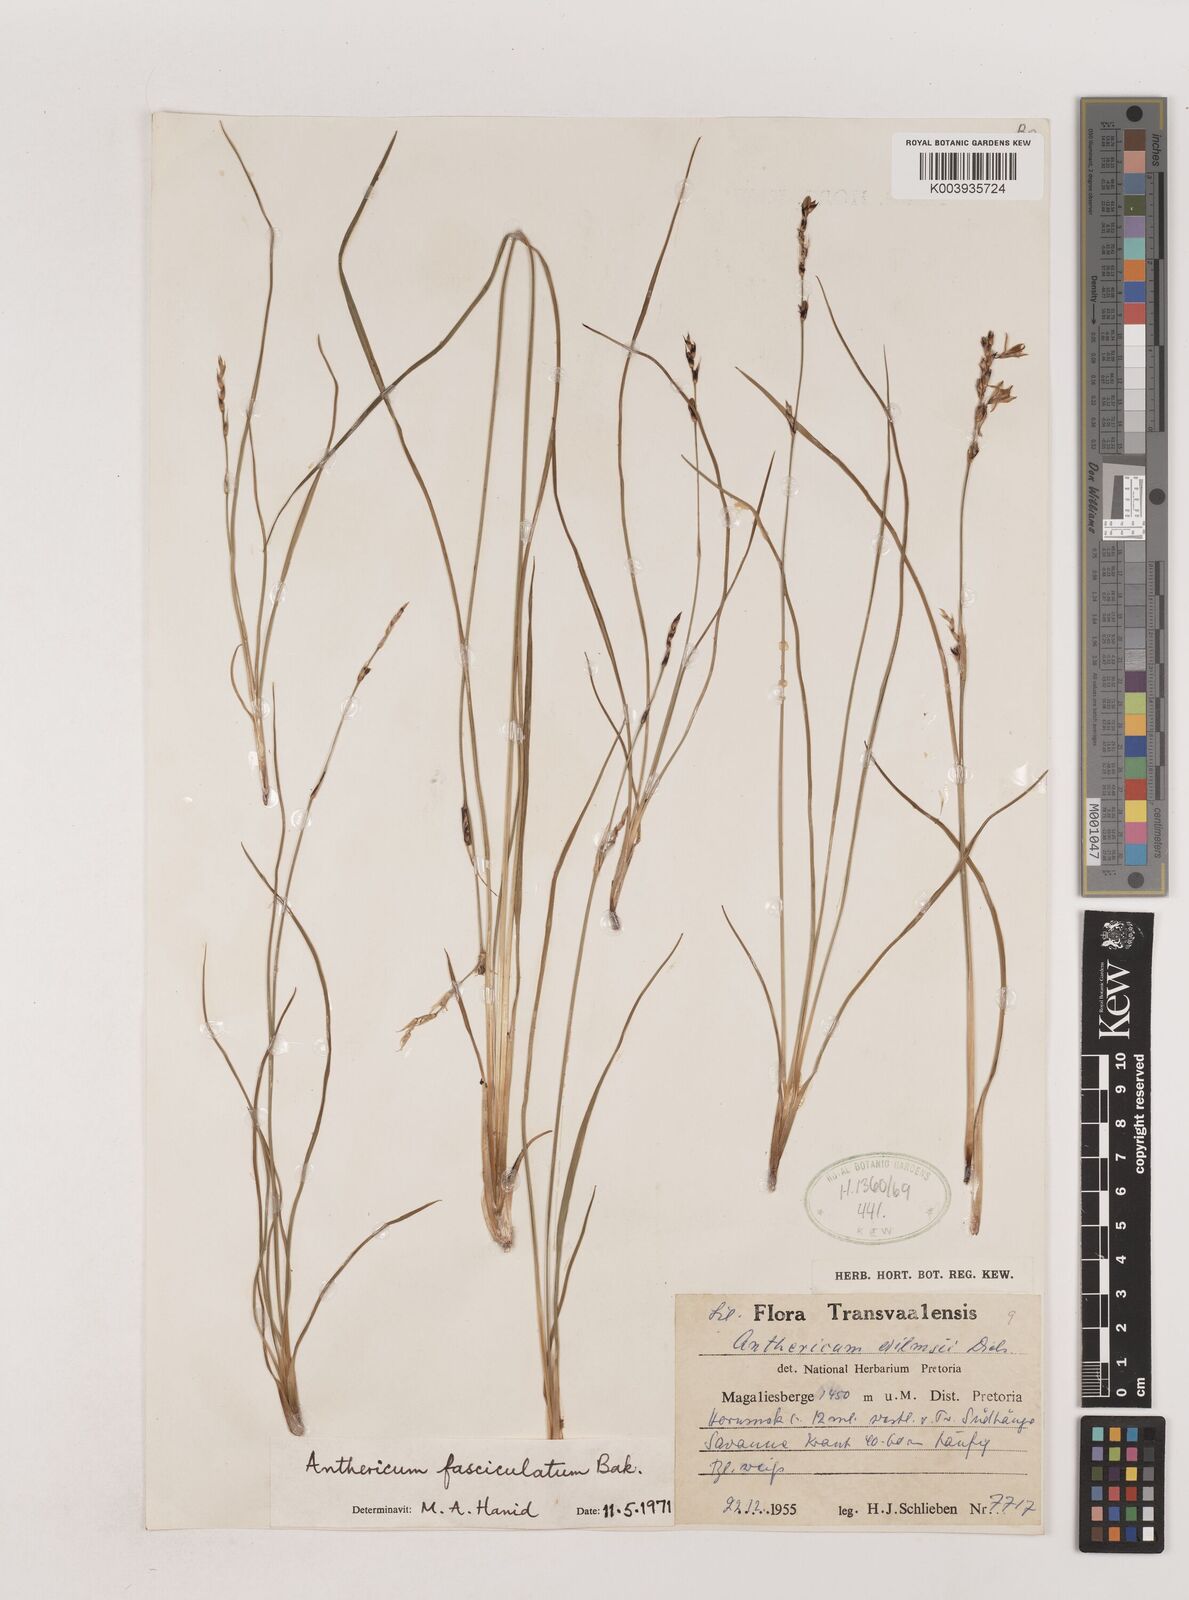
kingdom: Plantae
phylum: Tracheophyta
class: Liliopsida
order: Asparagales
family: Asparagaceae
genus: Chlorophytum
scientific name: Chlorophytum fasciculatum
